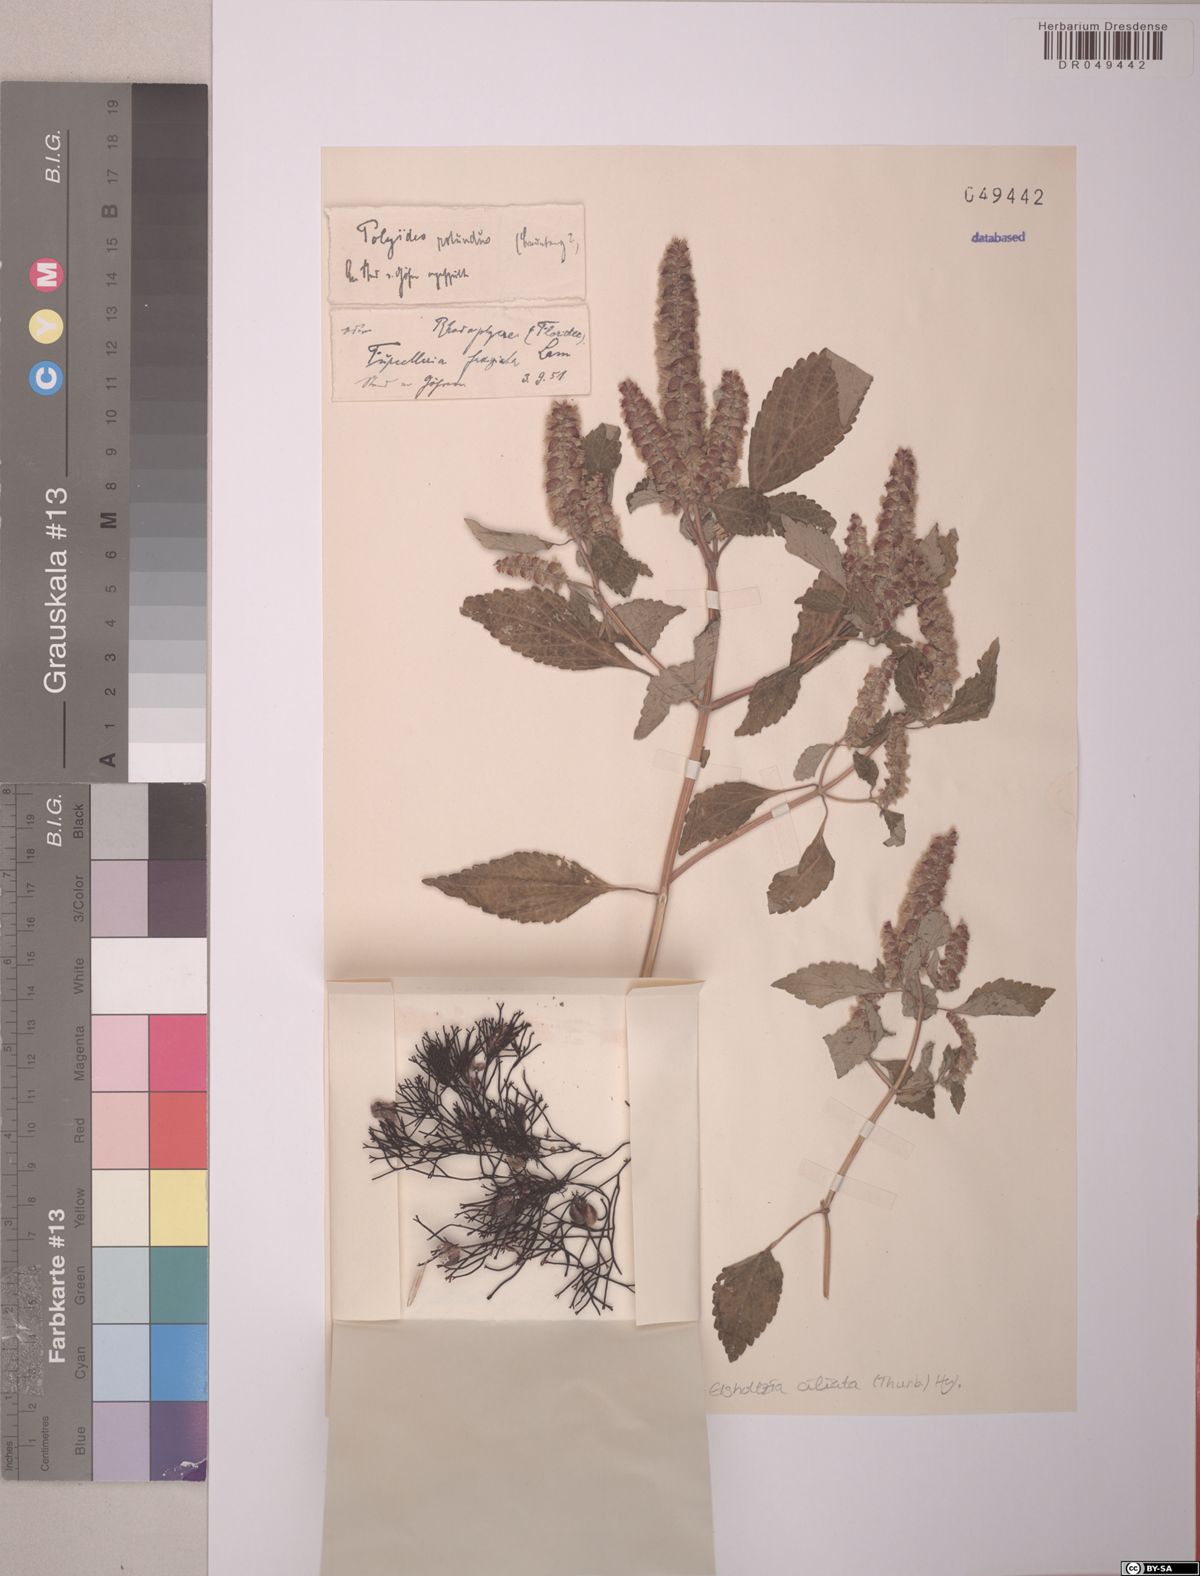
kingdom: Plantae
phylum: Tracheophyta
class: Magnoliopsida
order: Lamiales
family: Lamiaceae
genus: Elsholtzia
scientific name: Elsholtzia ciliata
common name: Ciliate elsholtzia
